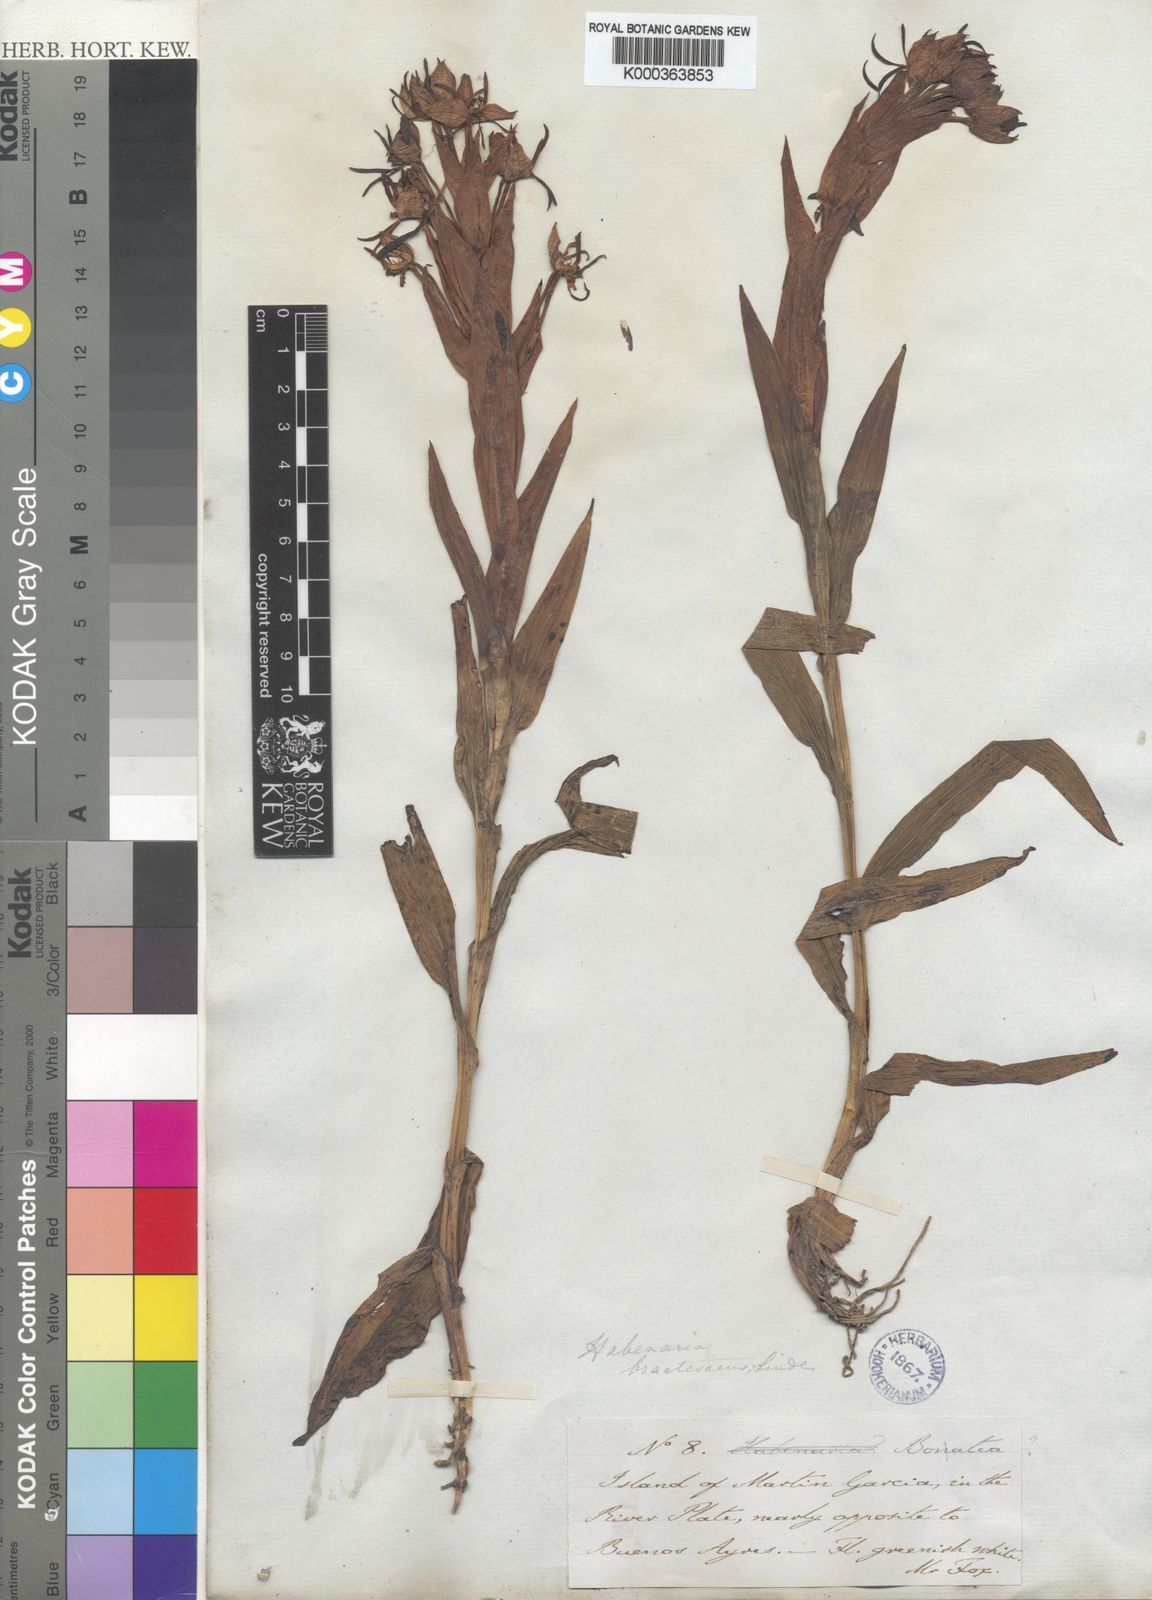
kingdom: Plantae
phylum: Tracheophyta
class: Liliopsida
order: Asparagales
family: Orchidaceae
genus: Habenaria
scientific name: Habenaria bractescens
